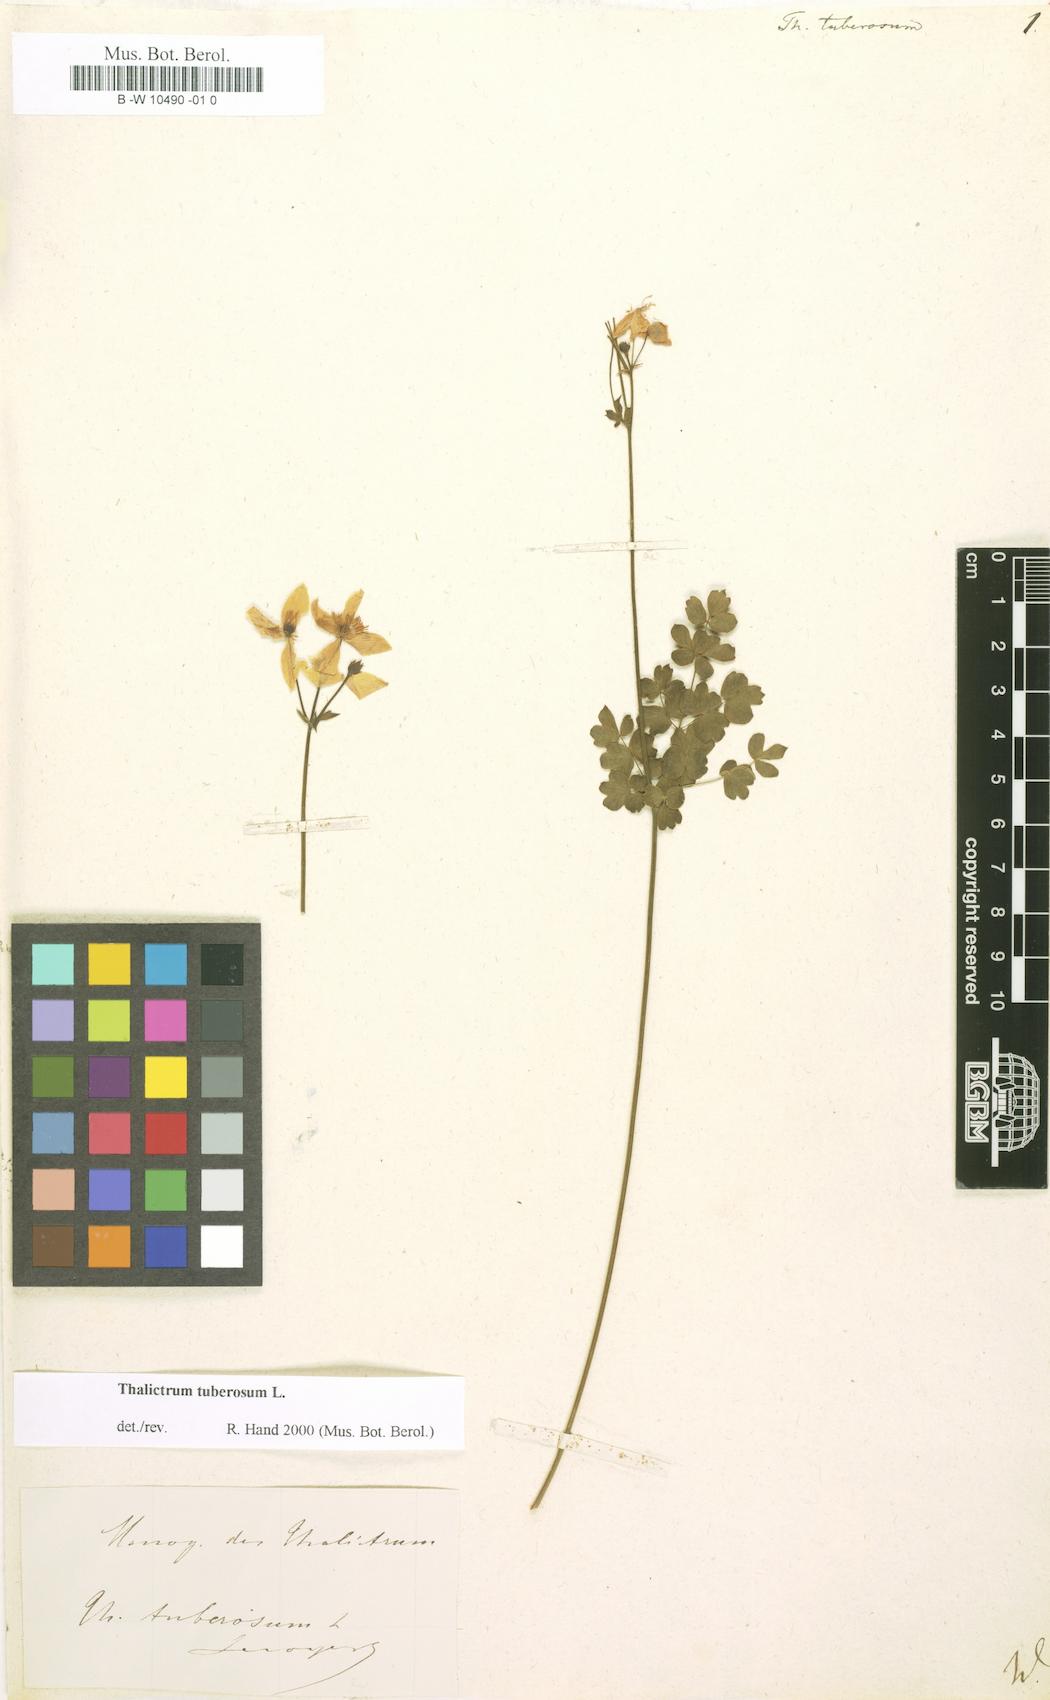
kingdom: Plantae
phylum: Tracheophyta
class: Magnoliopsida
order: Ranunculales
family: Ranunculaceae
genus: Thalictrum
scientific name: Thalictrum tuberosum
